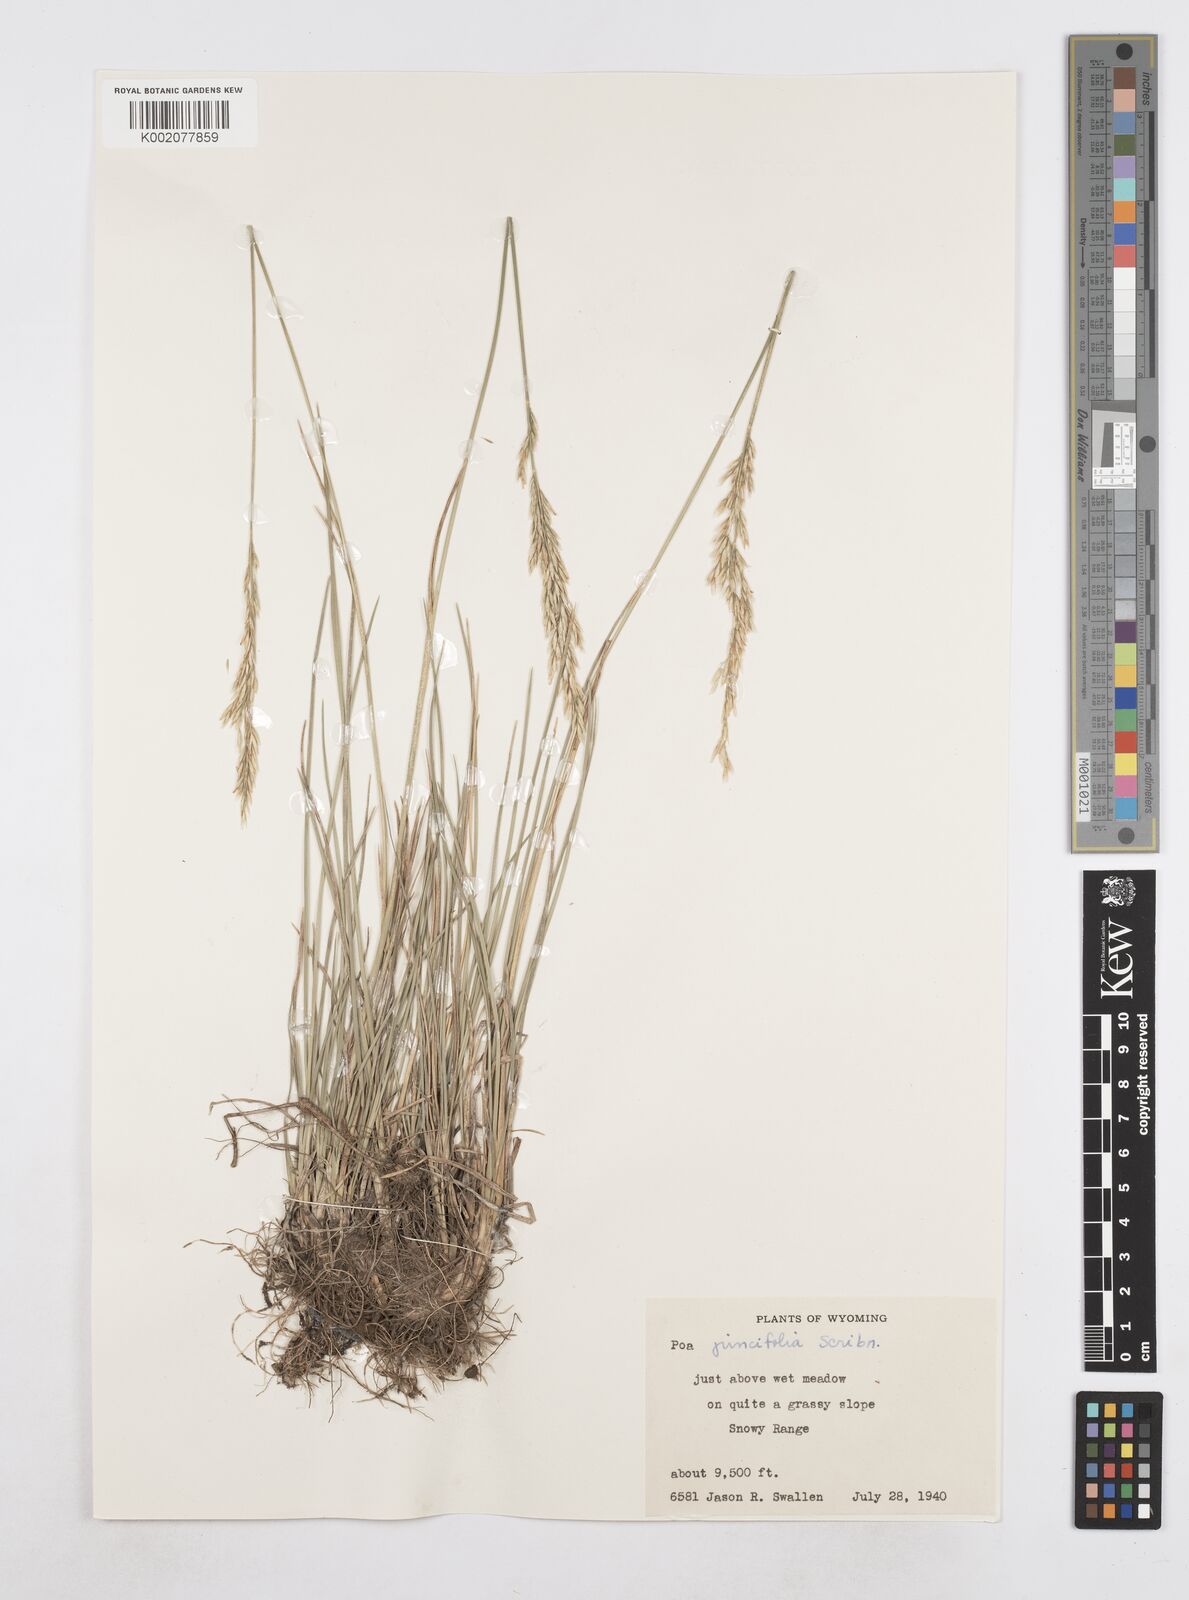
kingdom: Plantae
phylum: Tracheophyta
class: Liliopsida
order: Poales
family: Poaceae
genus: Poa
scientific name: Poa secunda
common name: Sandberg bluegrass
